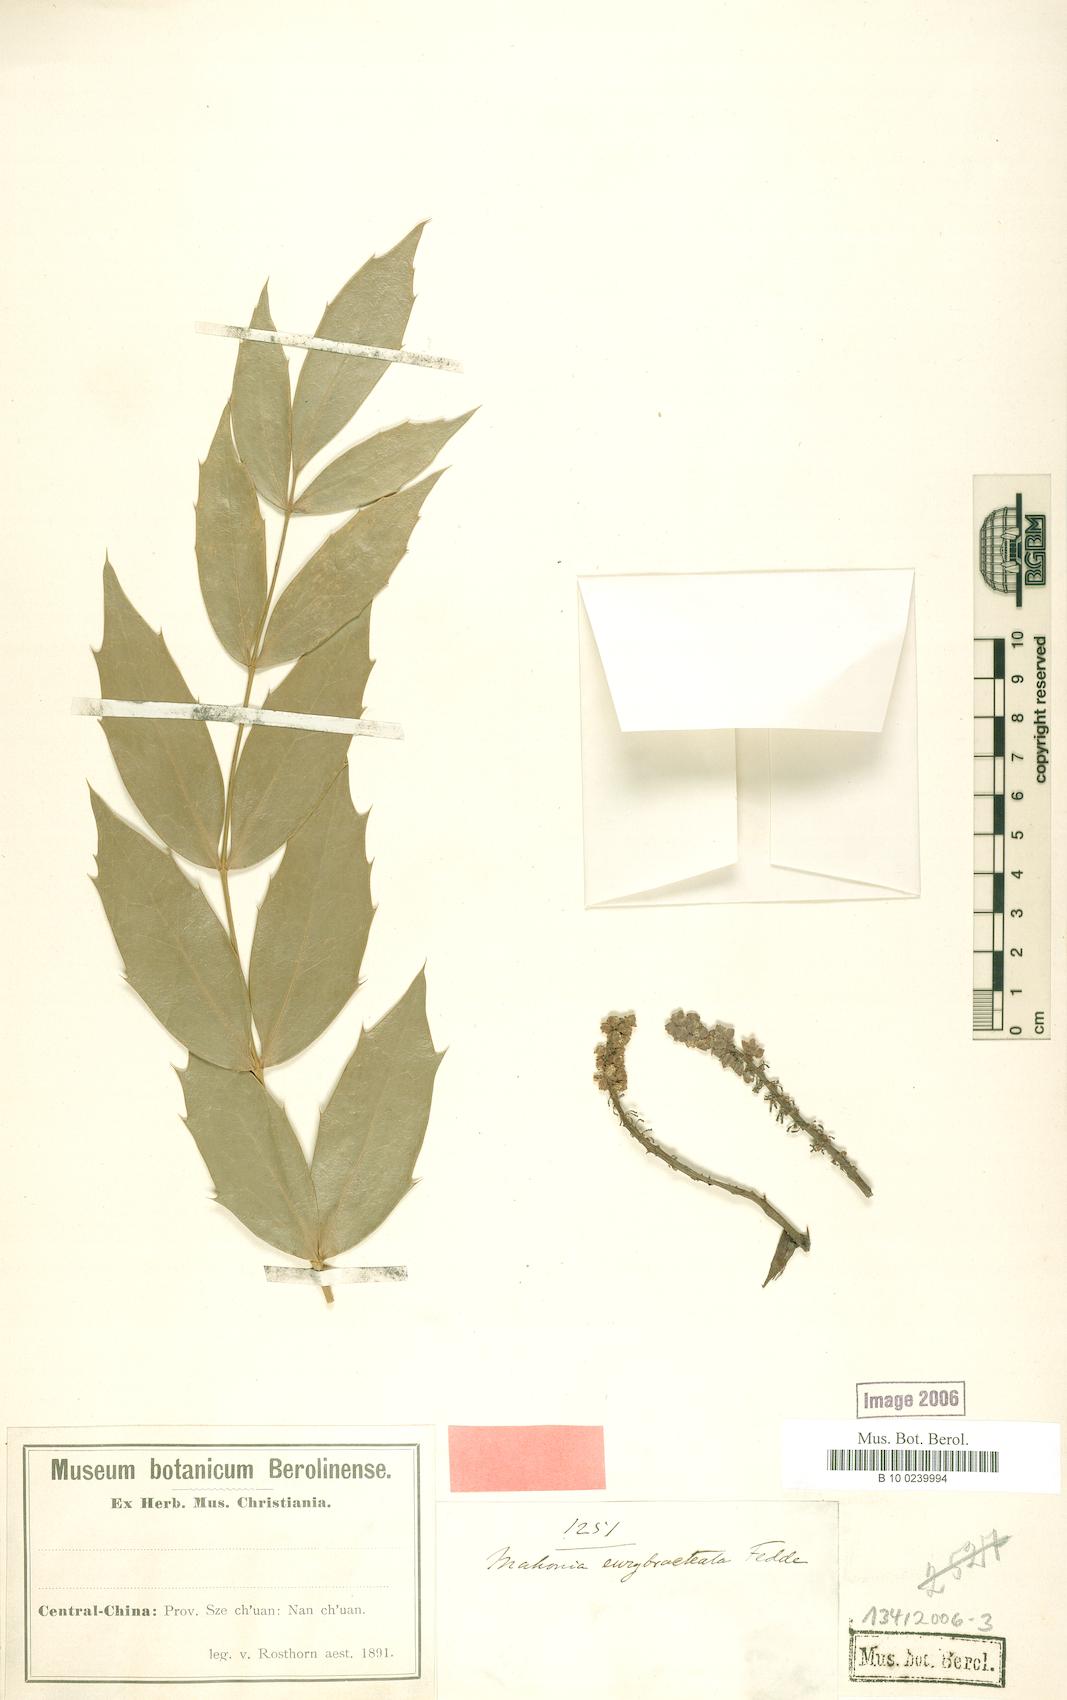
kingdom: Plantae
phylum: Tracheophyta
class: Magnoliopsida
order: Ranunculales
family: Berberidaceae
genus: Mahonia
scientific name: Mahonia eurybracteata
